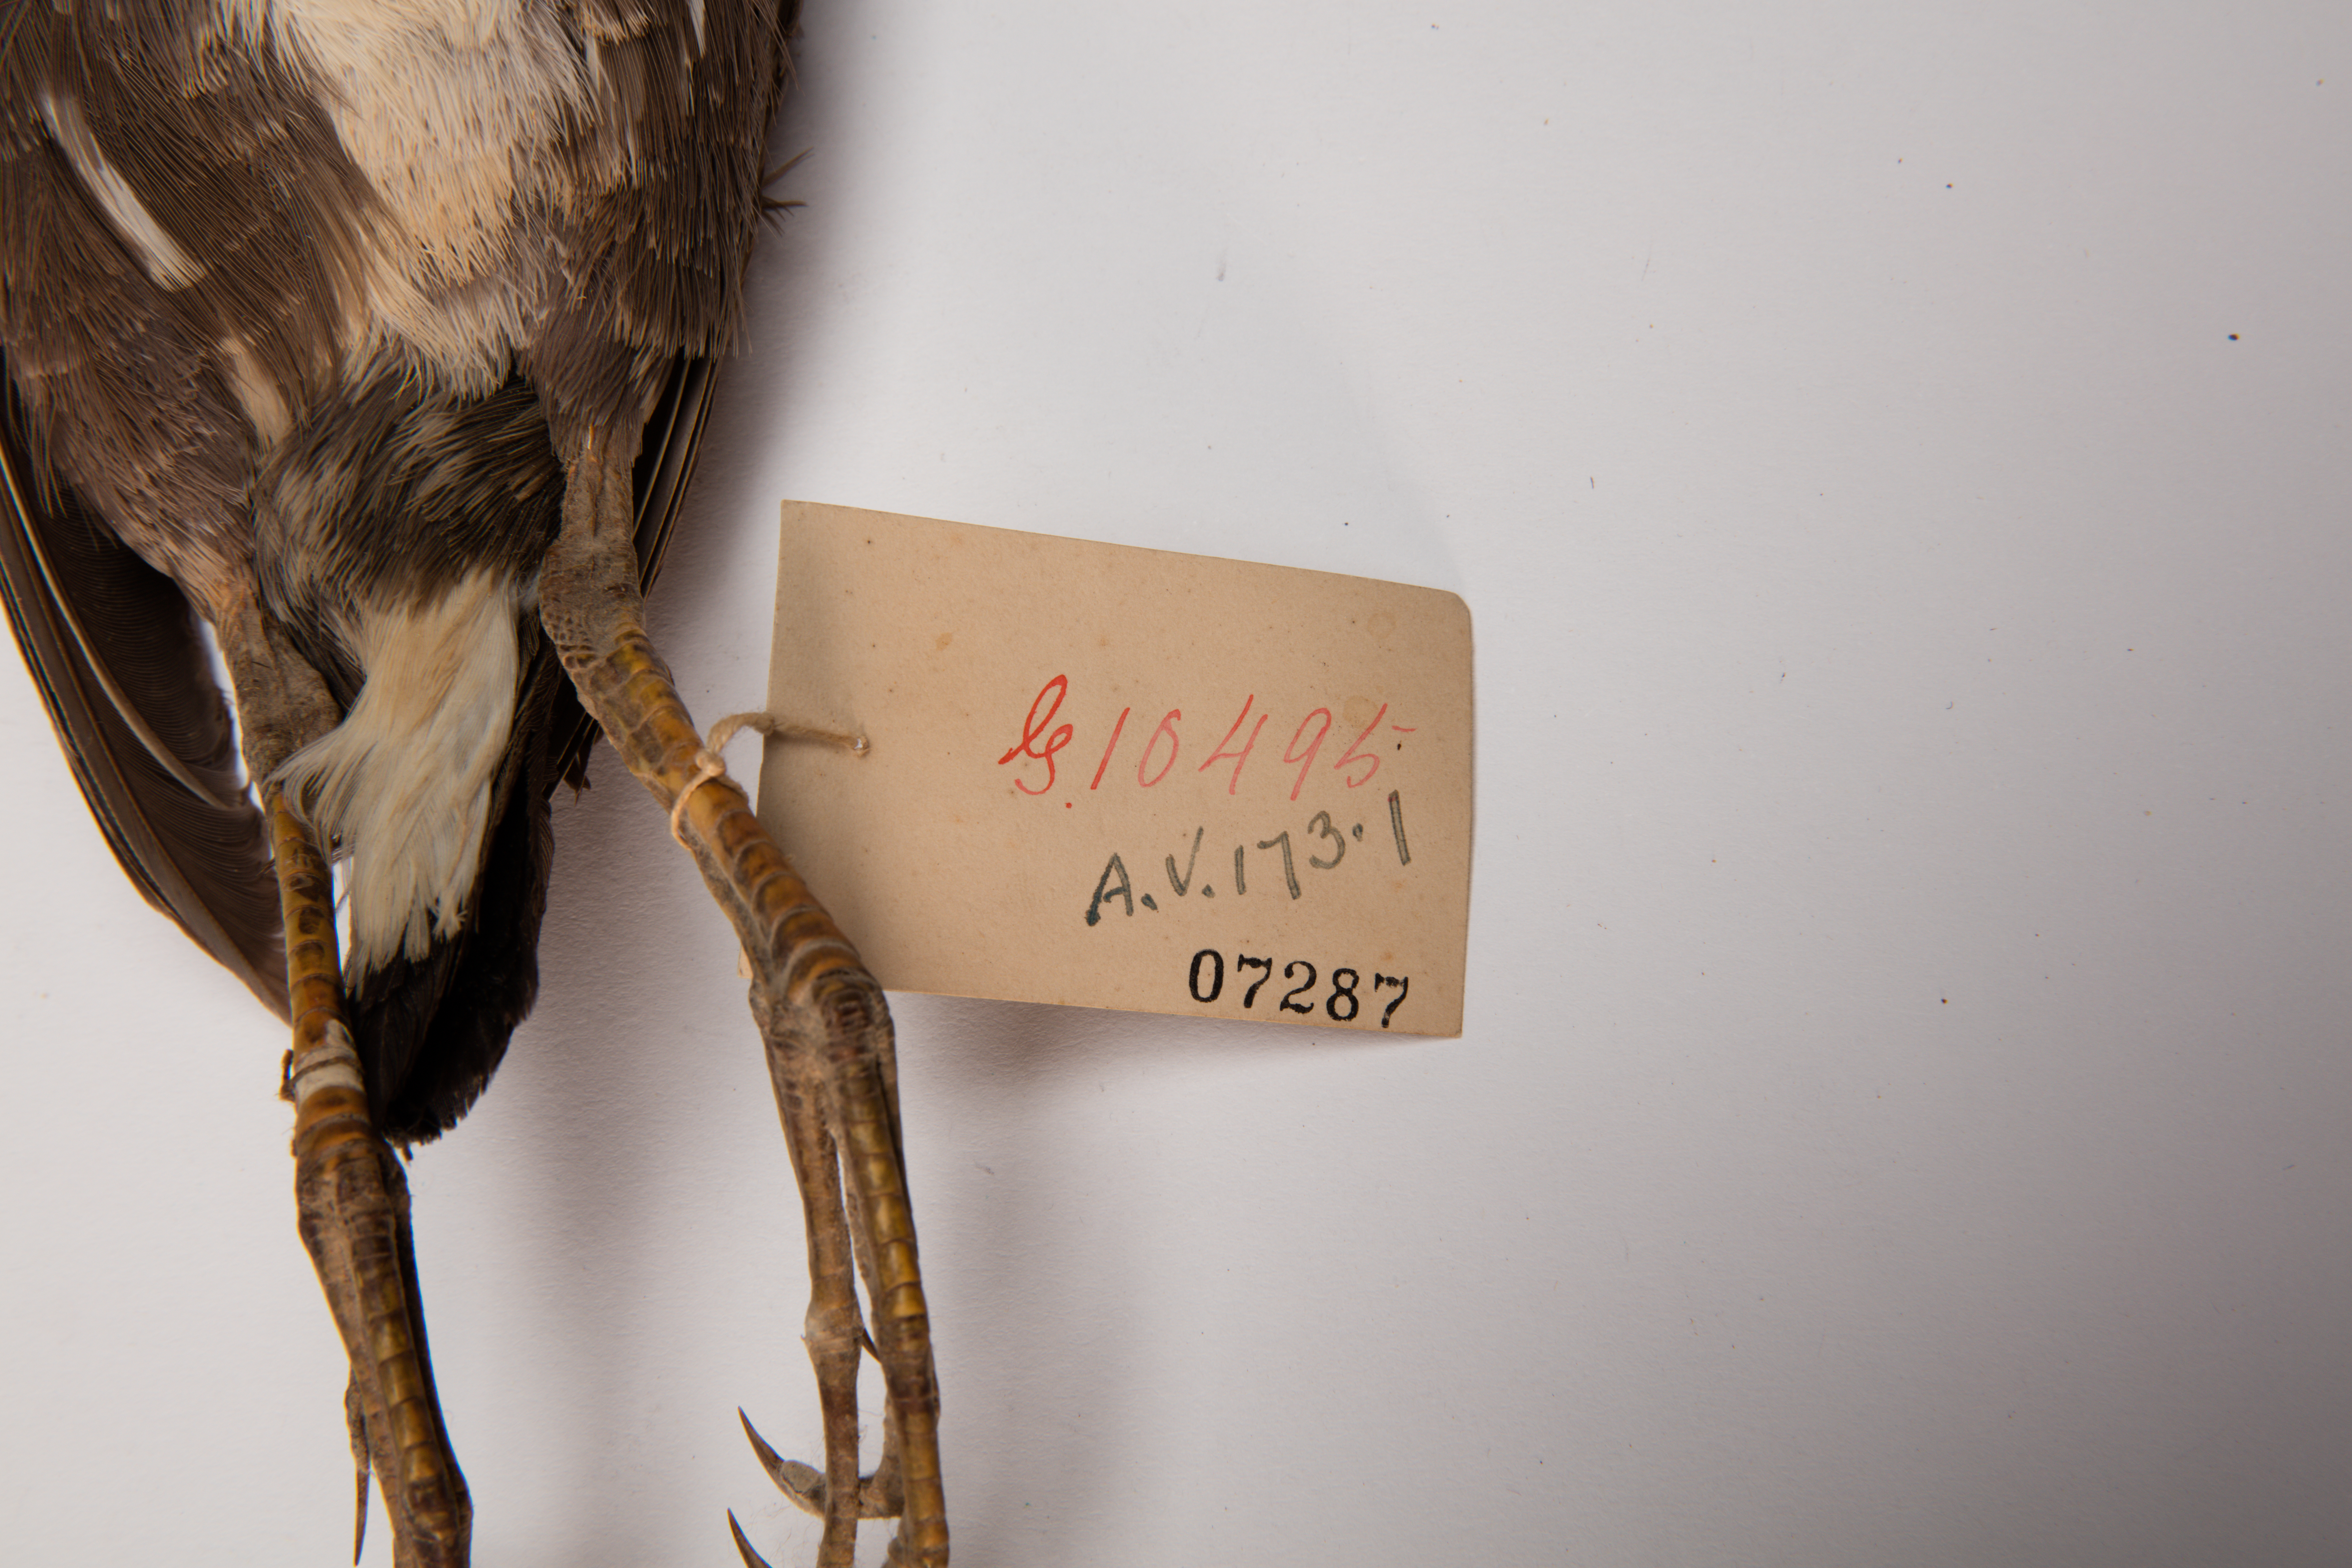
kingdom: Animalia
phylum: Chordata
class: Aves
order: Gruiformes
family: Rallidae
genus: Gallinula
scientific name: Gallinula chloropus
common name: Common moorhen
